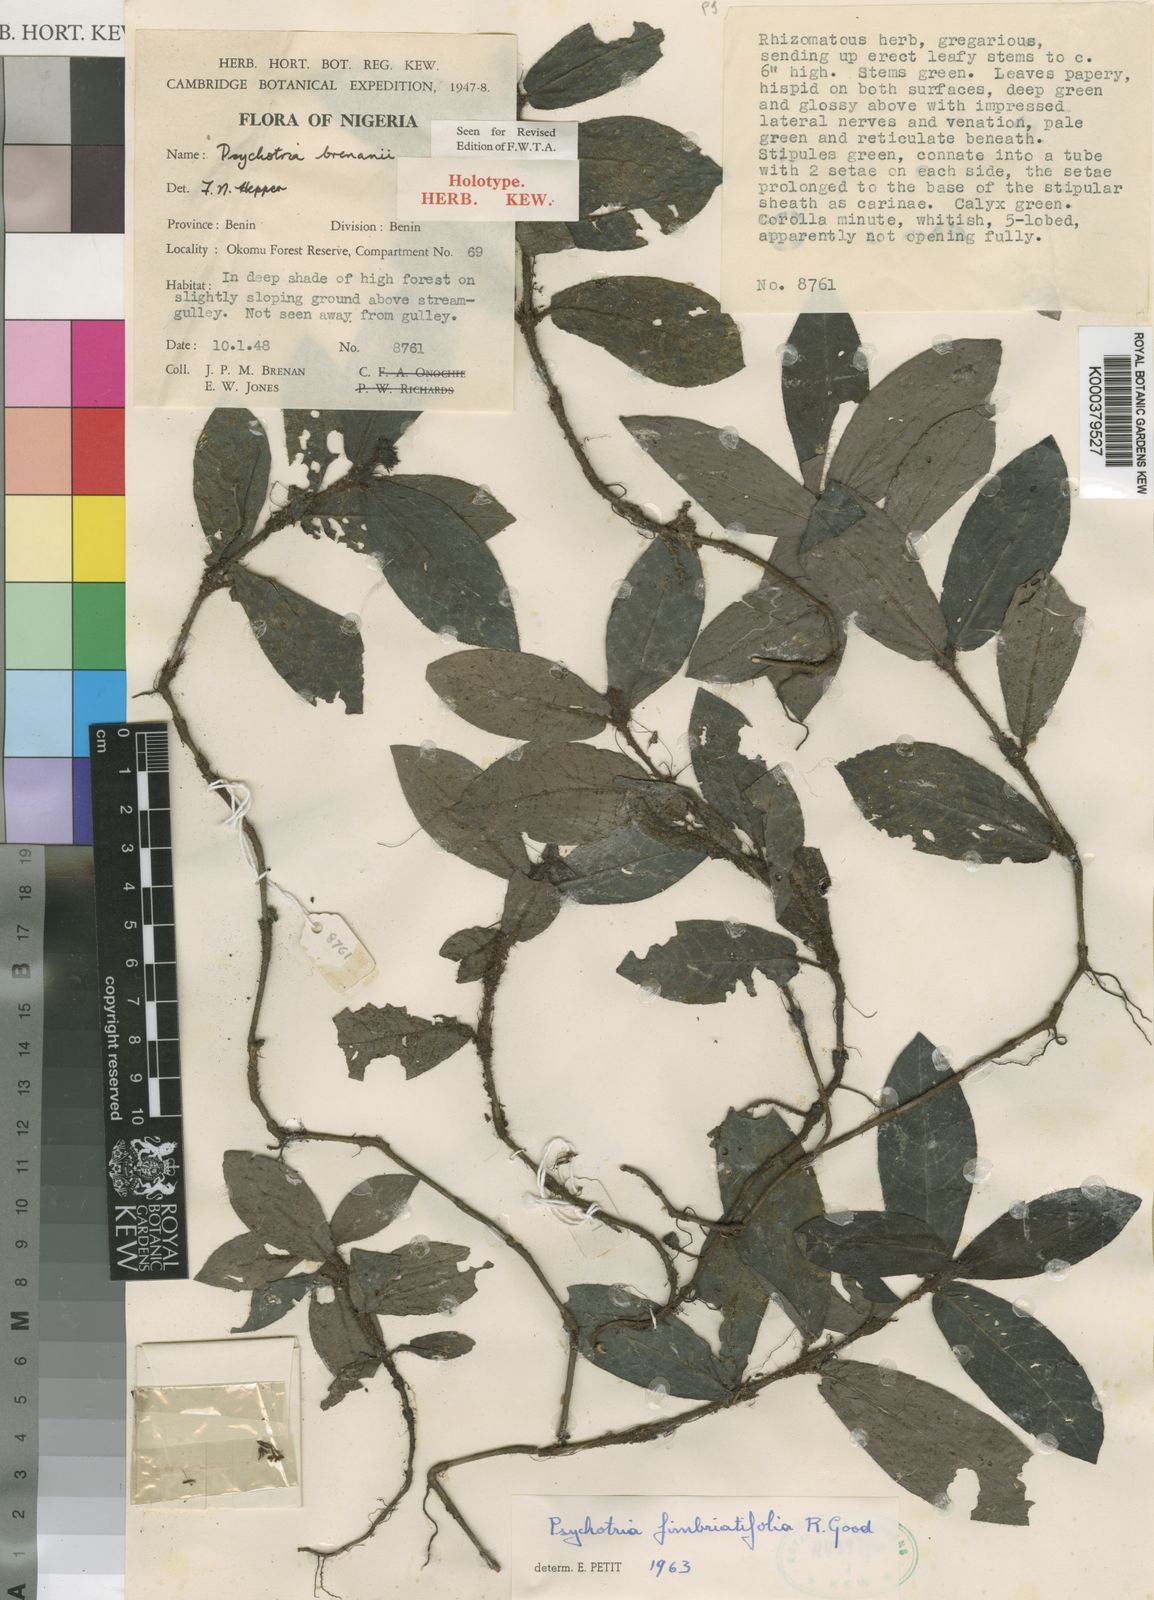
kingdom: Plantae
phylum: Tracheophyta
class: Magnoliopsida
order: Gentianales
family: Rubiaceae
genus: Psychotria
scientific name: Psychotria fimbriatifolia
